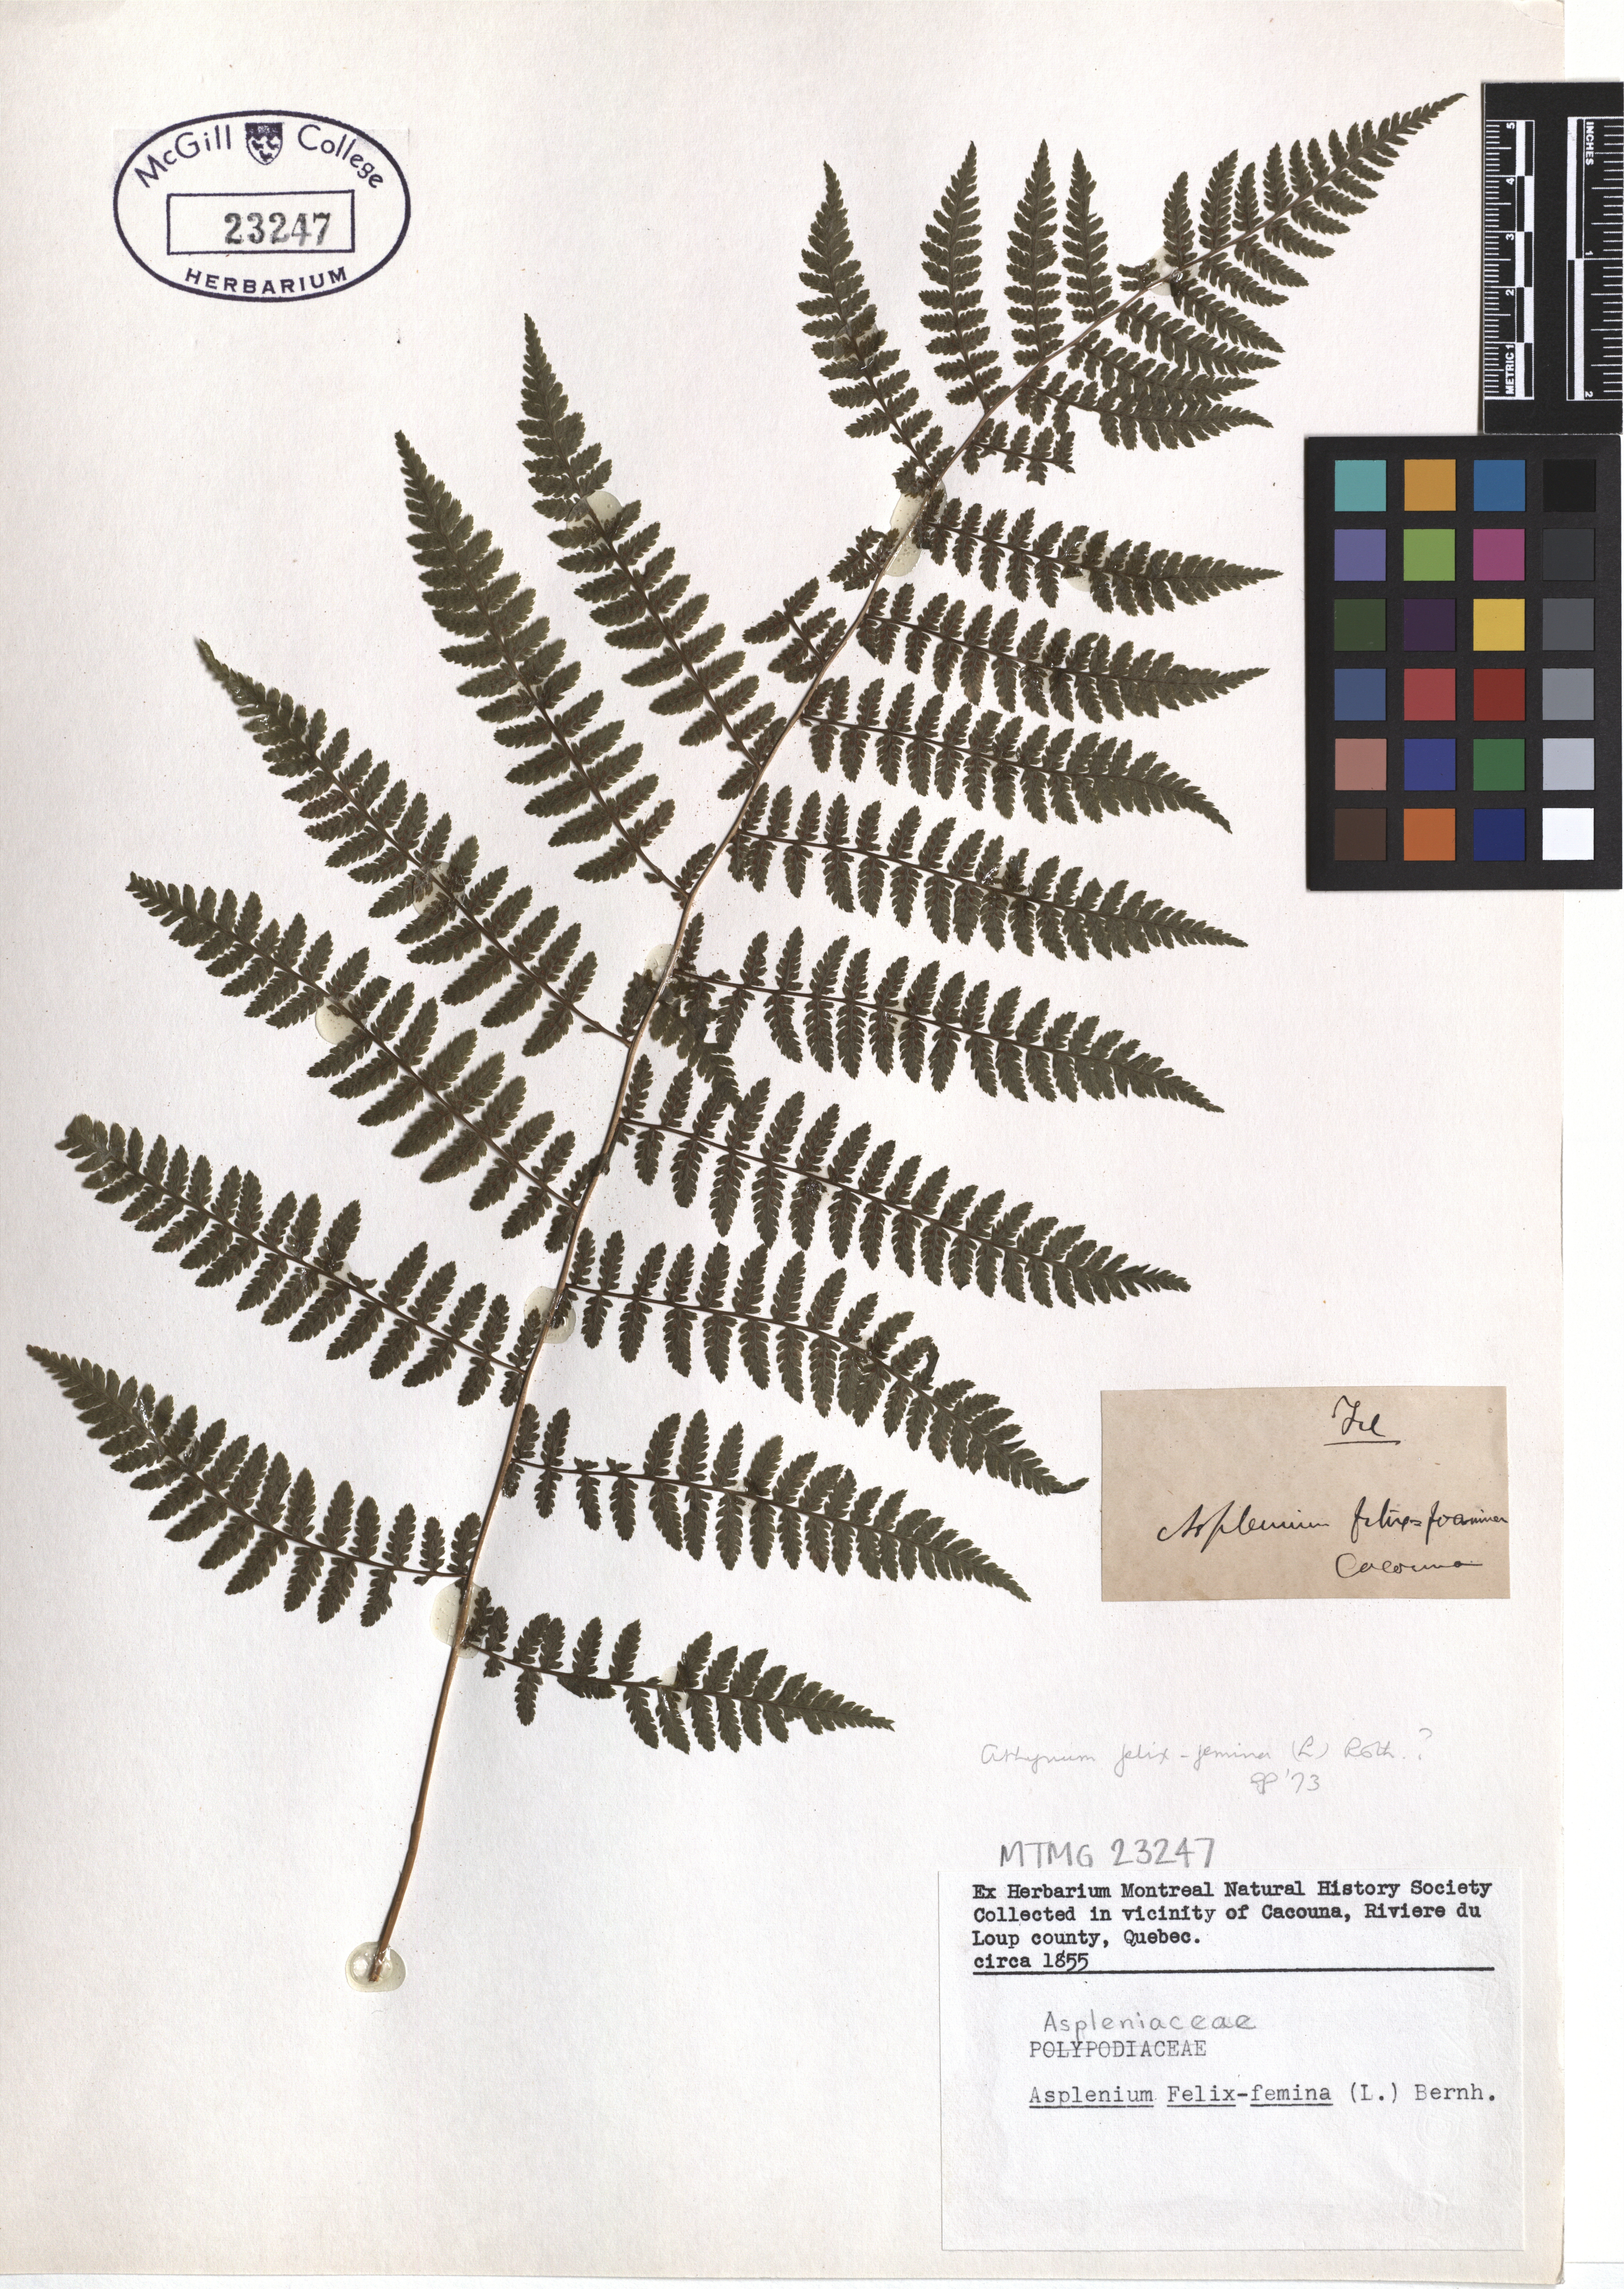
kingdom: Plantae
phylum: Tracheophyta
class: Polypodiopsida
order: Polypodiales
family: Athyriaceae
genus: Athyrium
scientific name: Athyrium filix-femina
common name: Lady fern
